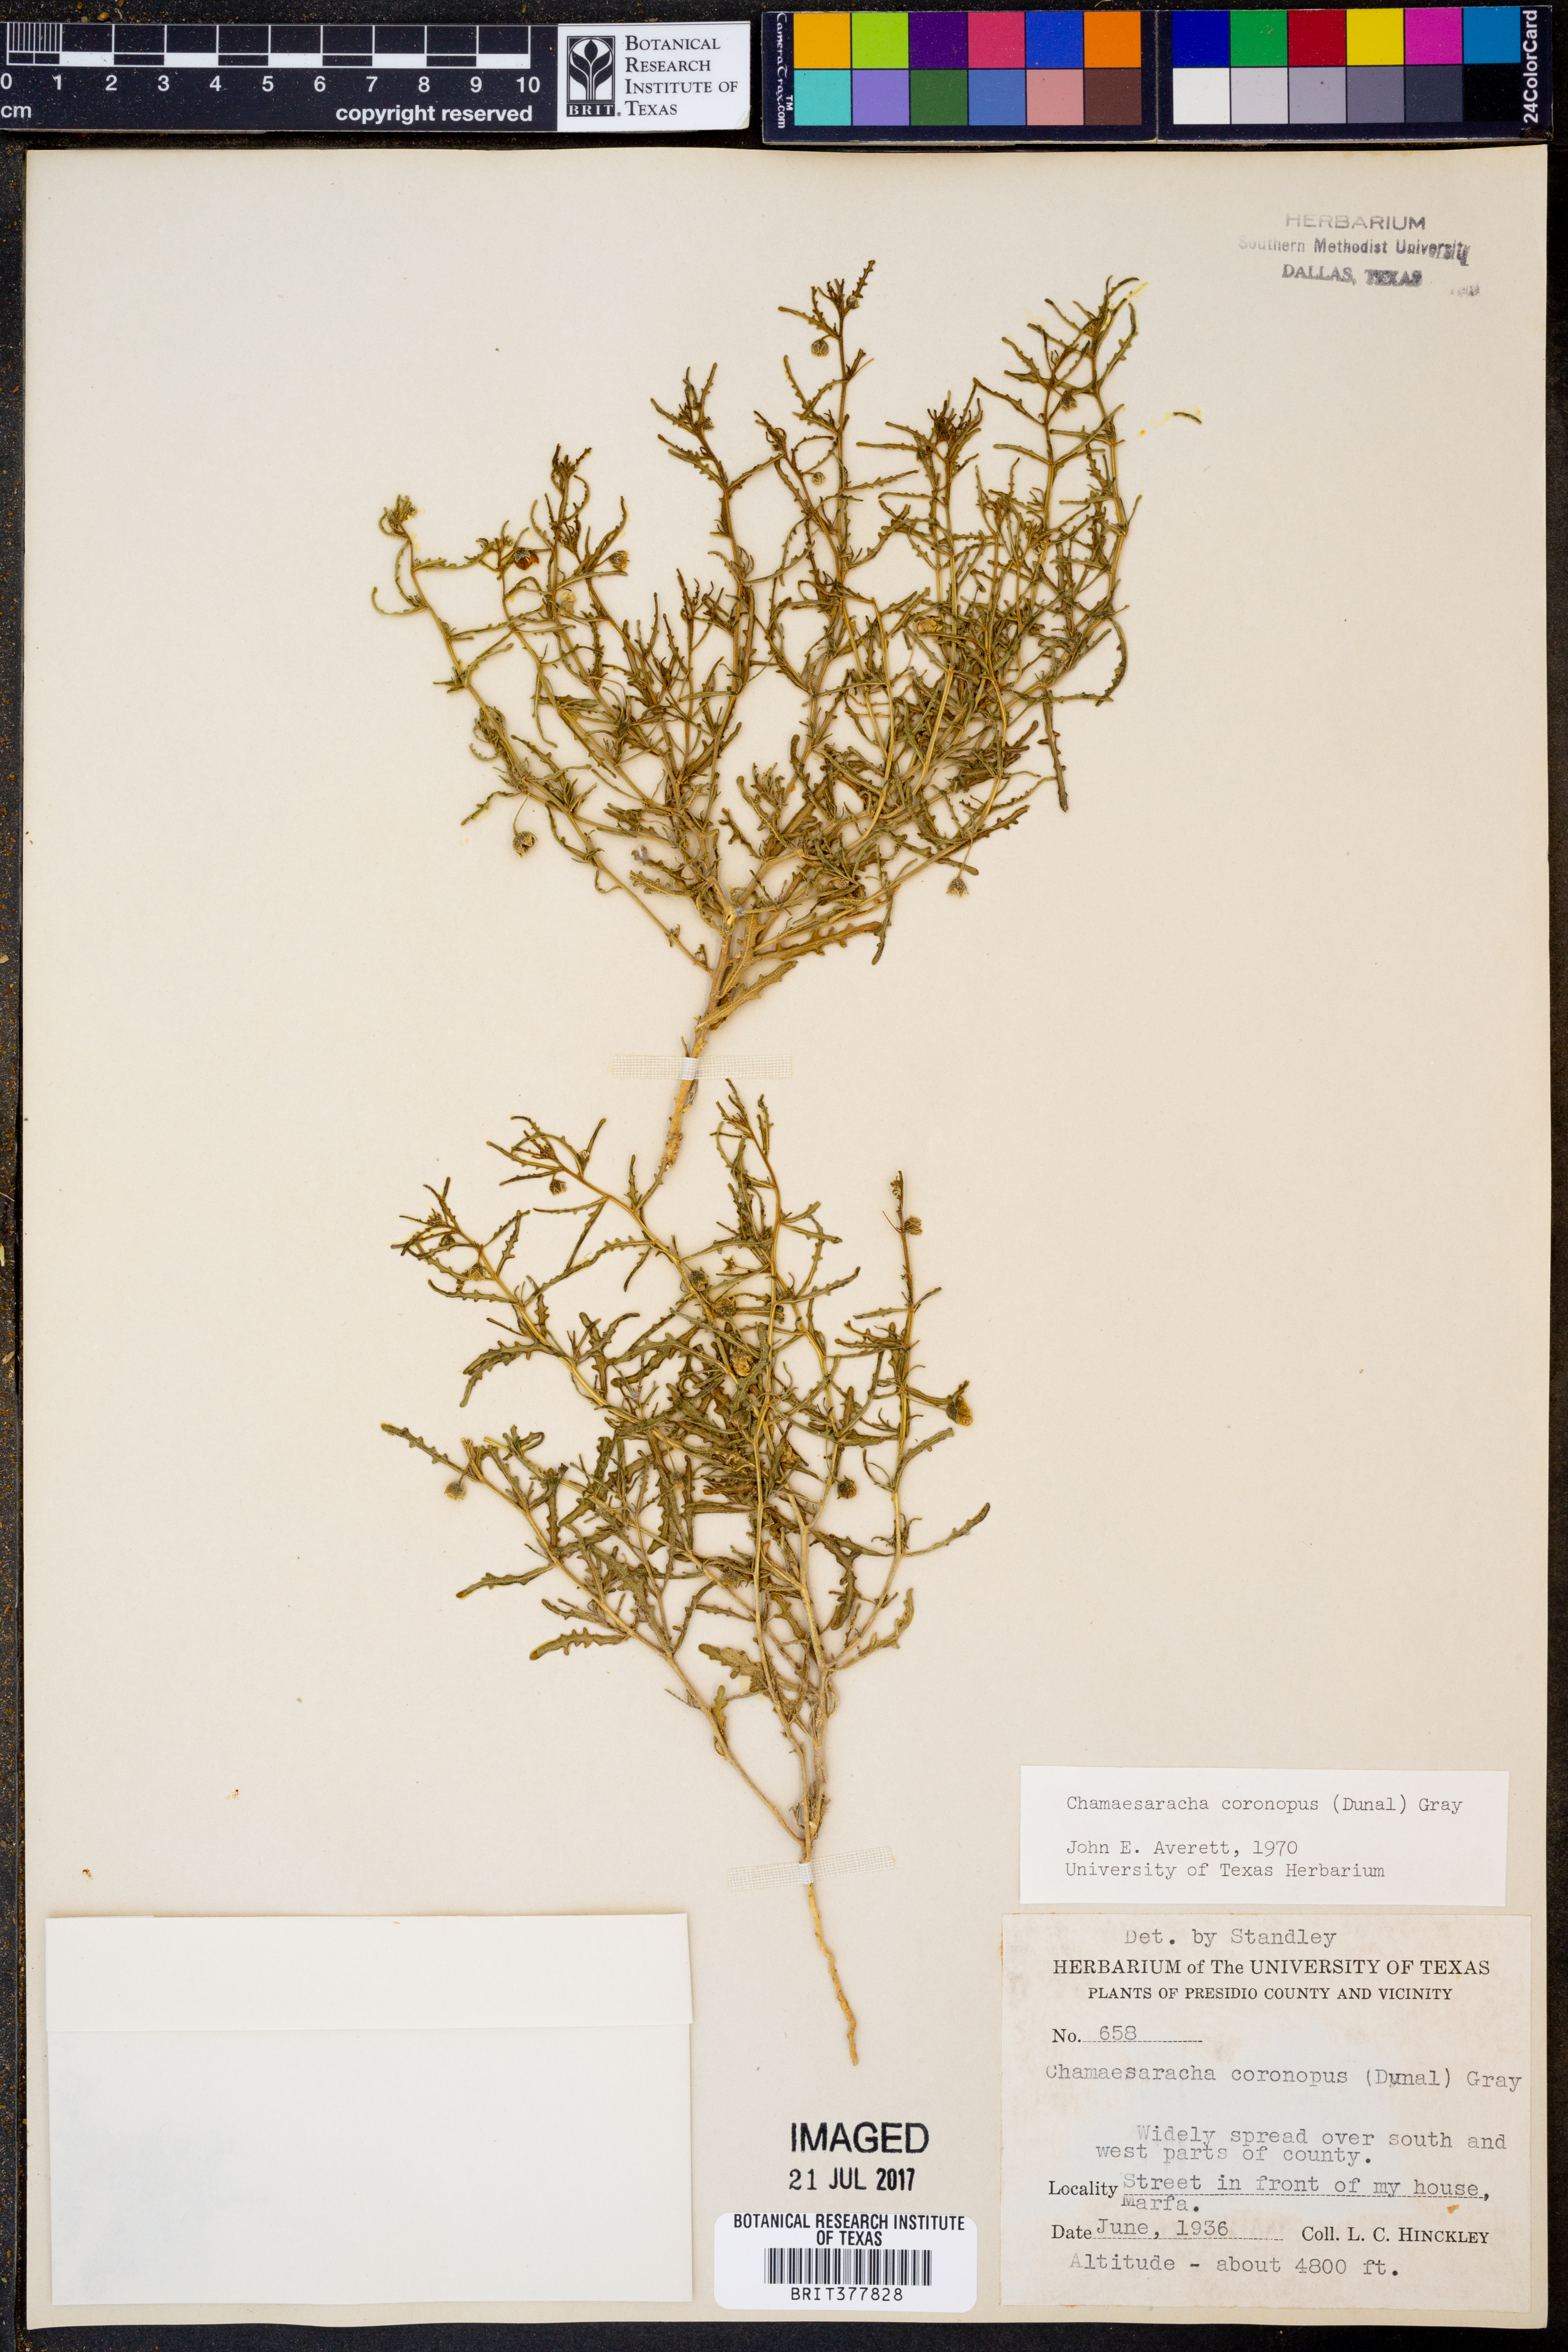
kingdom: Plantae
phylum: Tracheophyta
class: Magnoliopsida
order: Solanales
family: Solanaceae
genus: Chamaesaracha
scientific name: Chamaesaracha coronopus
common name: Smooth chamaesaracha
